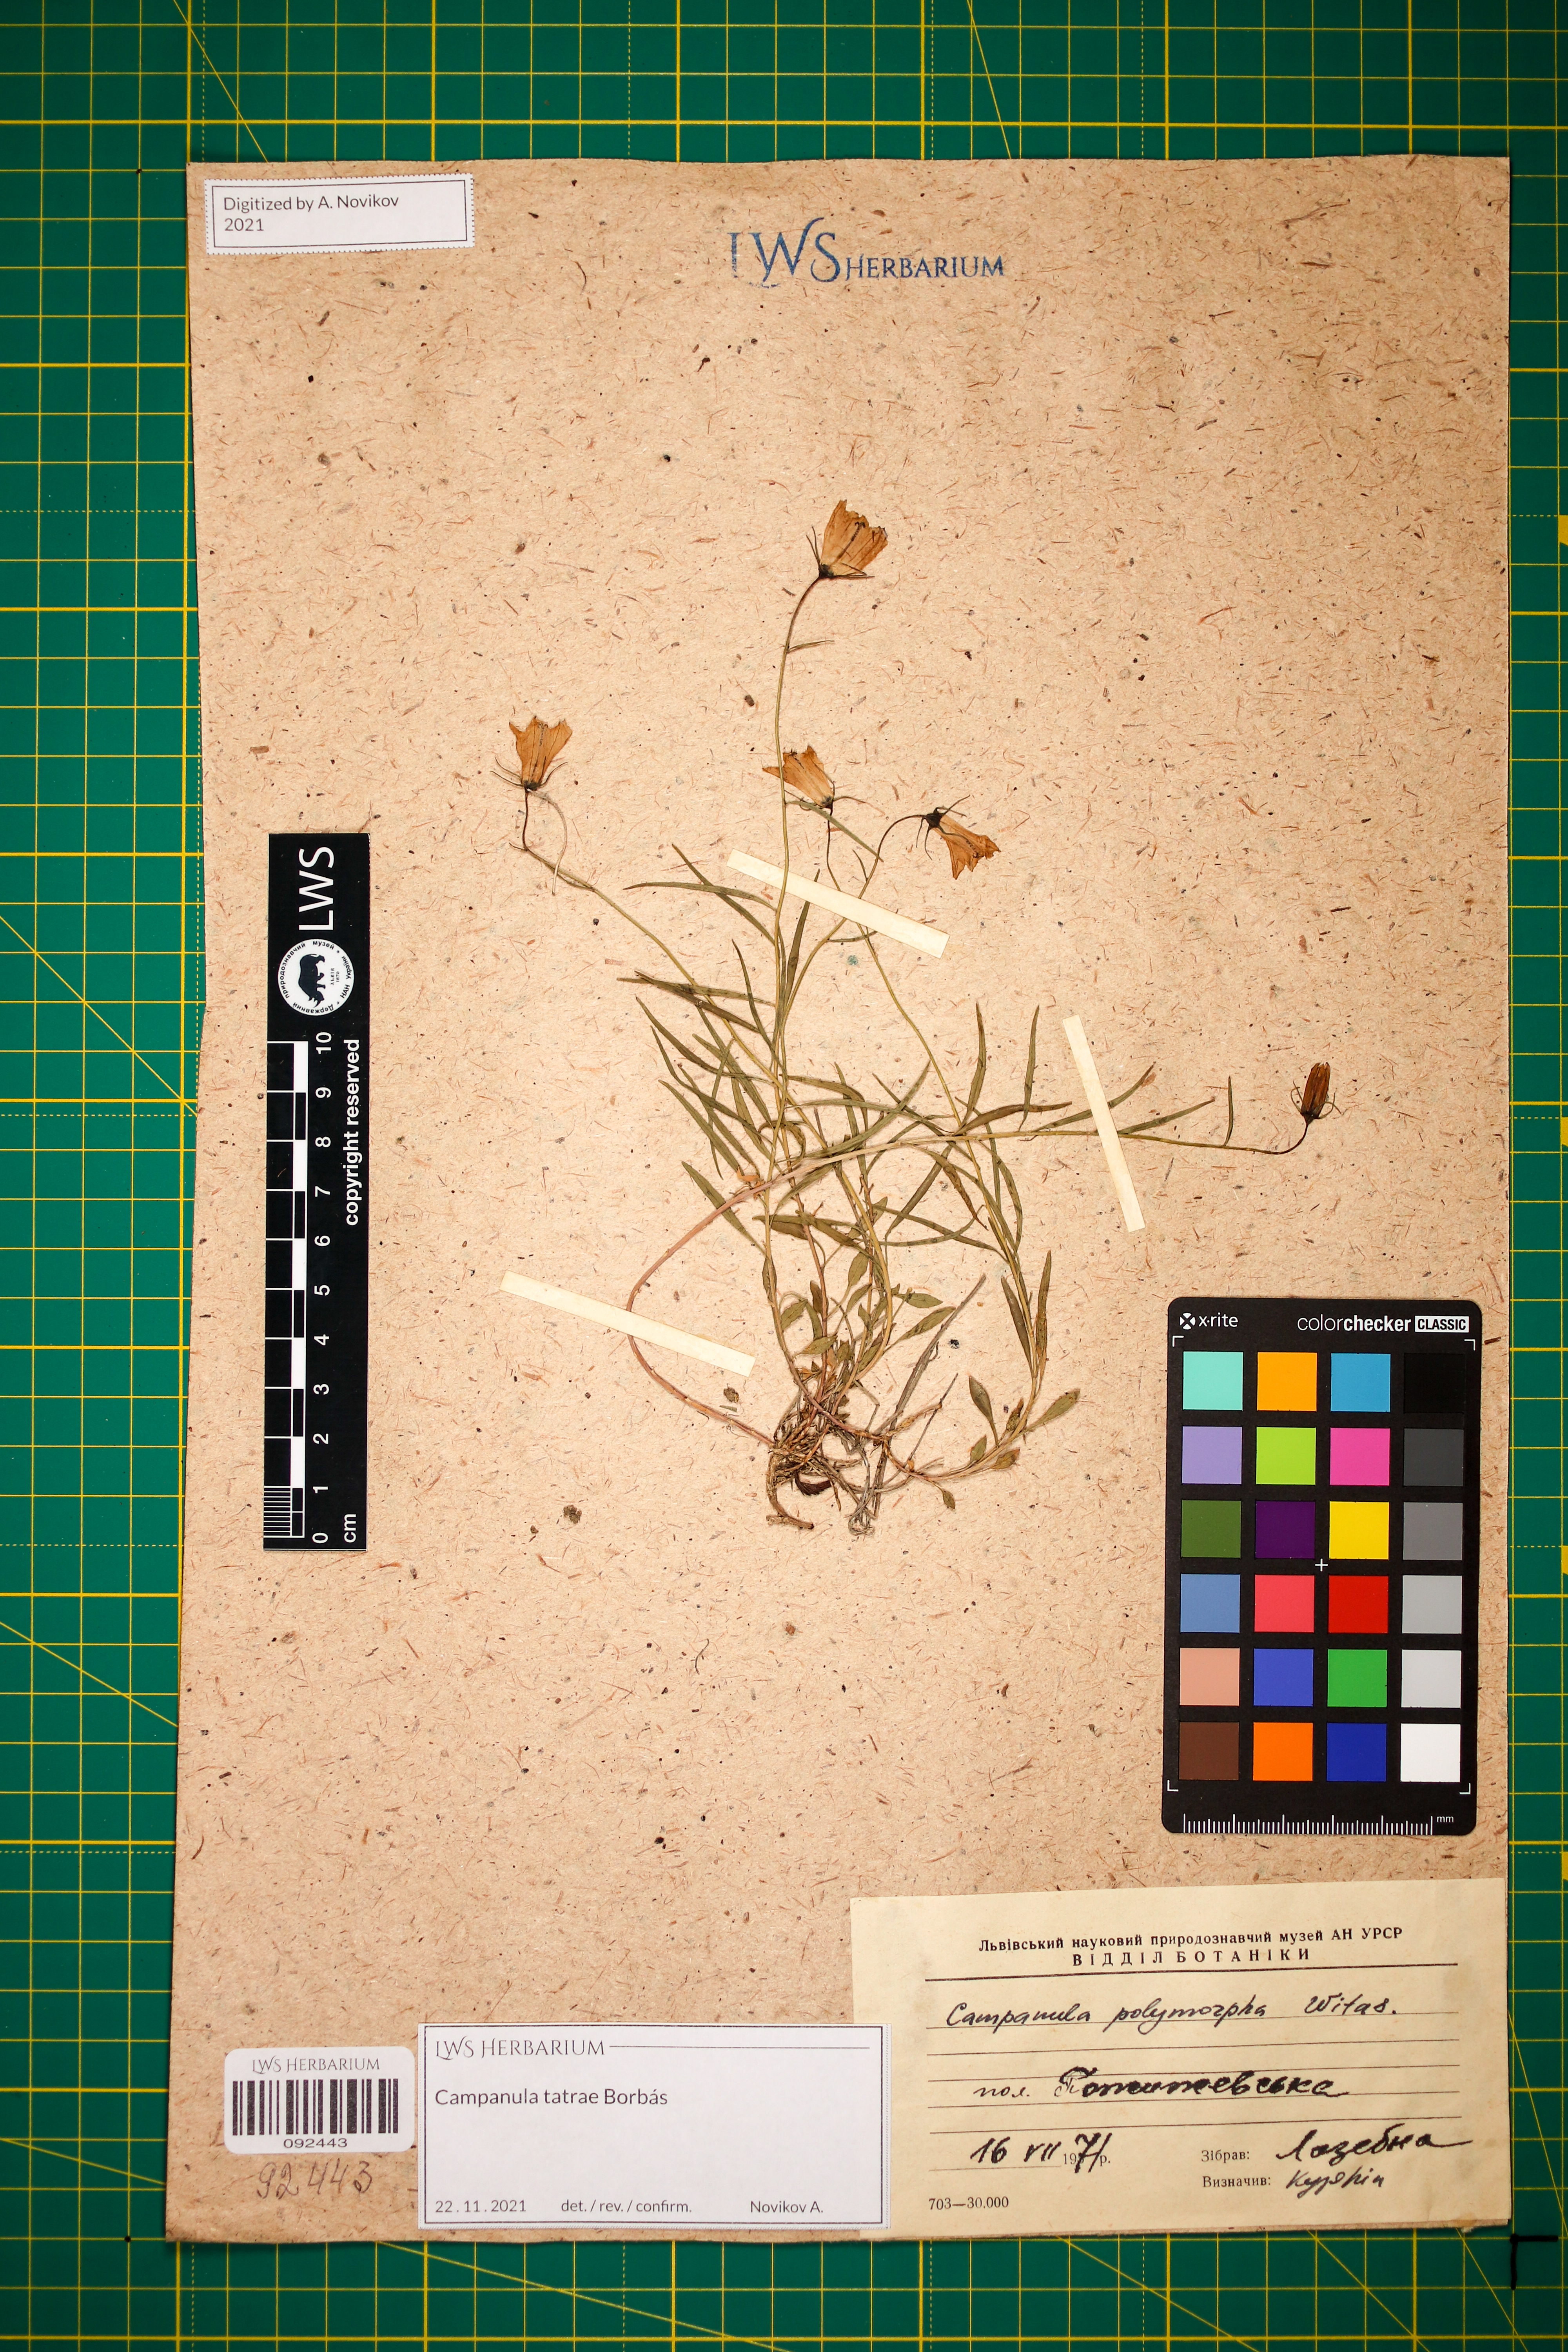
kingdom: Plantae
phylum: Tracheophyta
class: Magnoliopsida
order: Asterales
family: Campanulaceae
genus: Campanula
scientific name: Campanula tatrae
